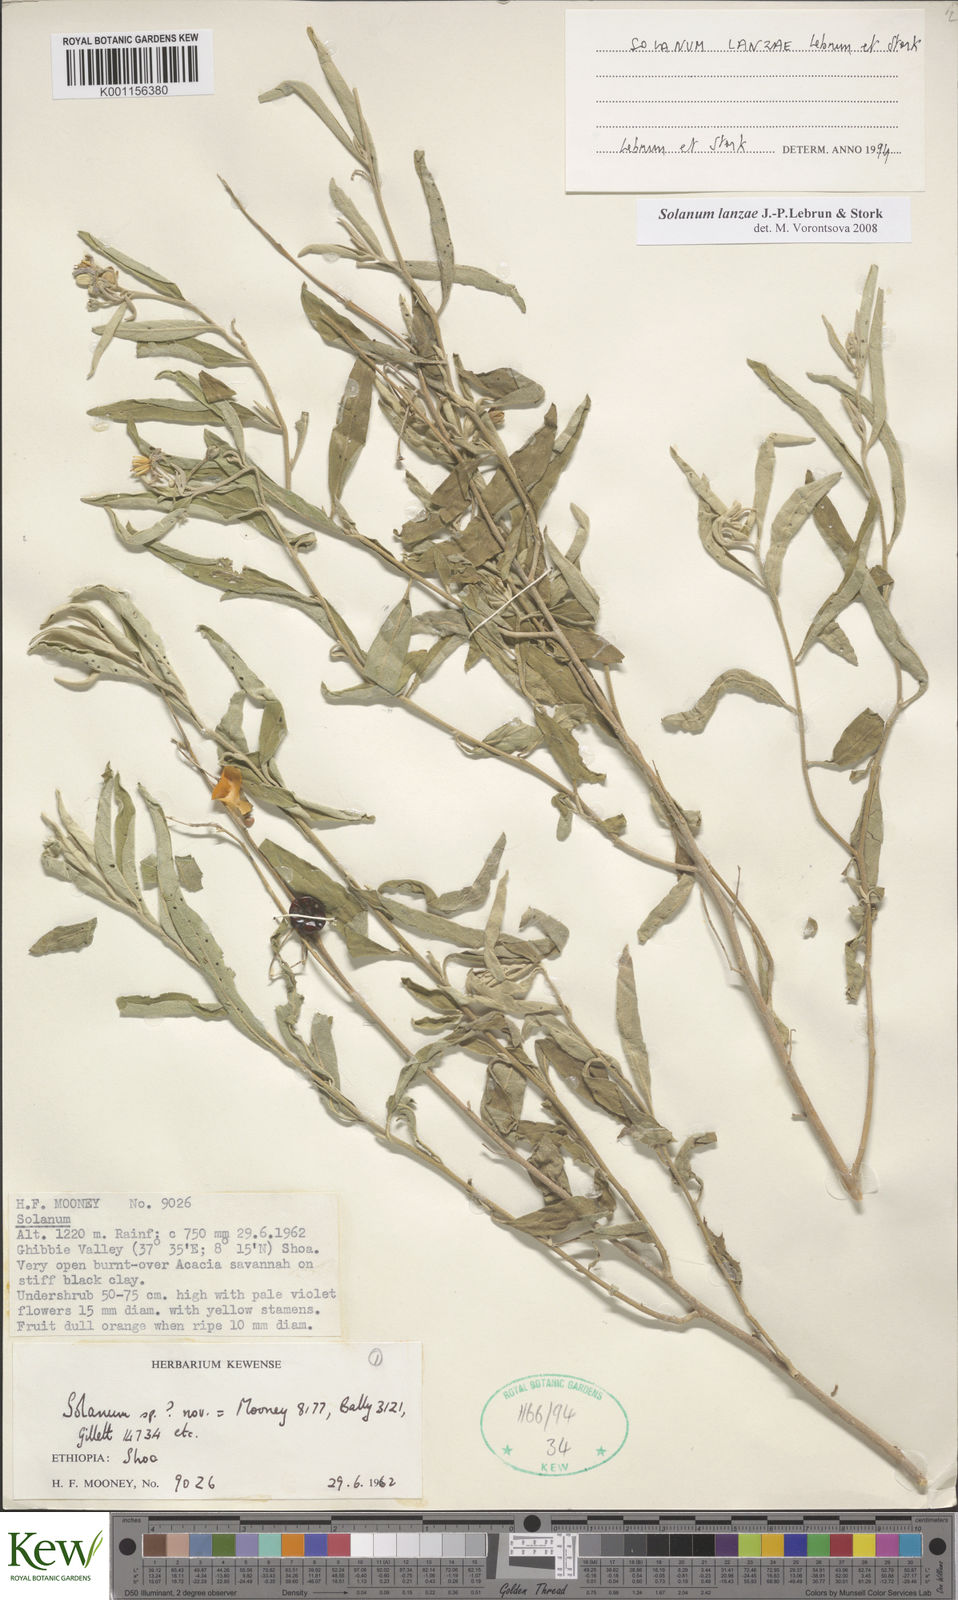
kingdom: Plantae
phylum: Tracheophyta
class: Magnoliopsida
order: Solanales
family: Solanaceae
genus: Solanum
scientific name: Solanum lanzae
